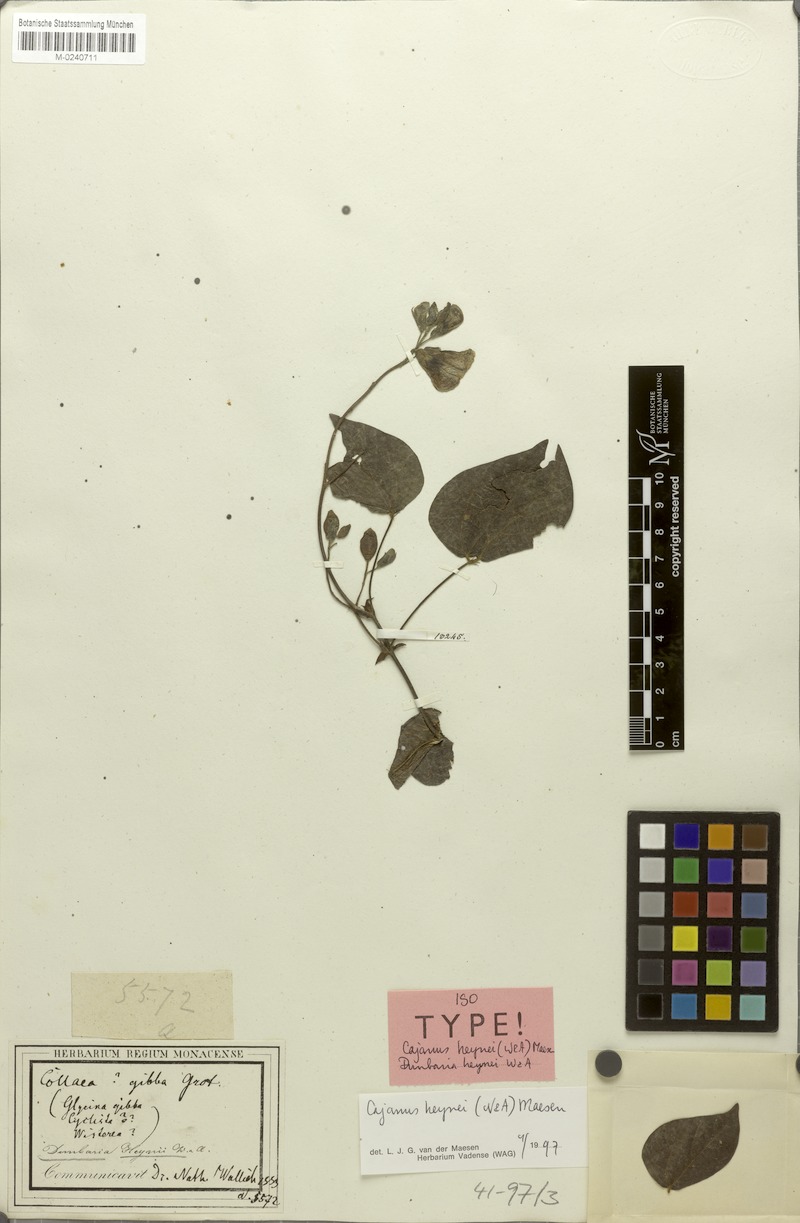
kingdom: Plantae
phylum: Tracheophyta
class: Magnoliopsida
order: Fabales
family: Fabaceae
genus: Cajanus
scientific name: Cajanus heynei
